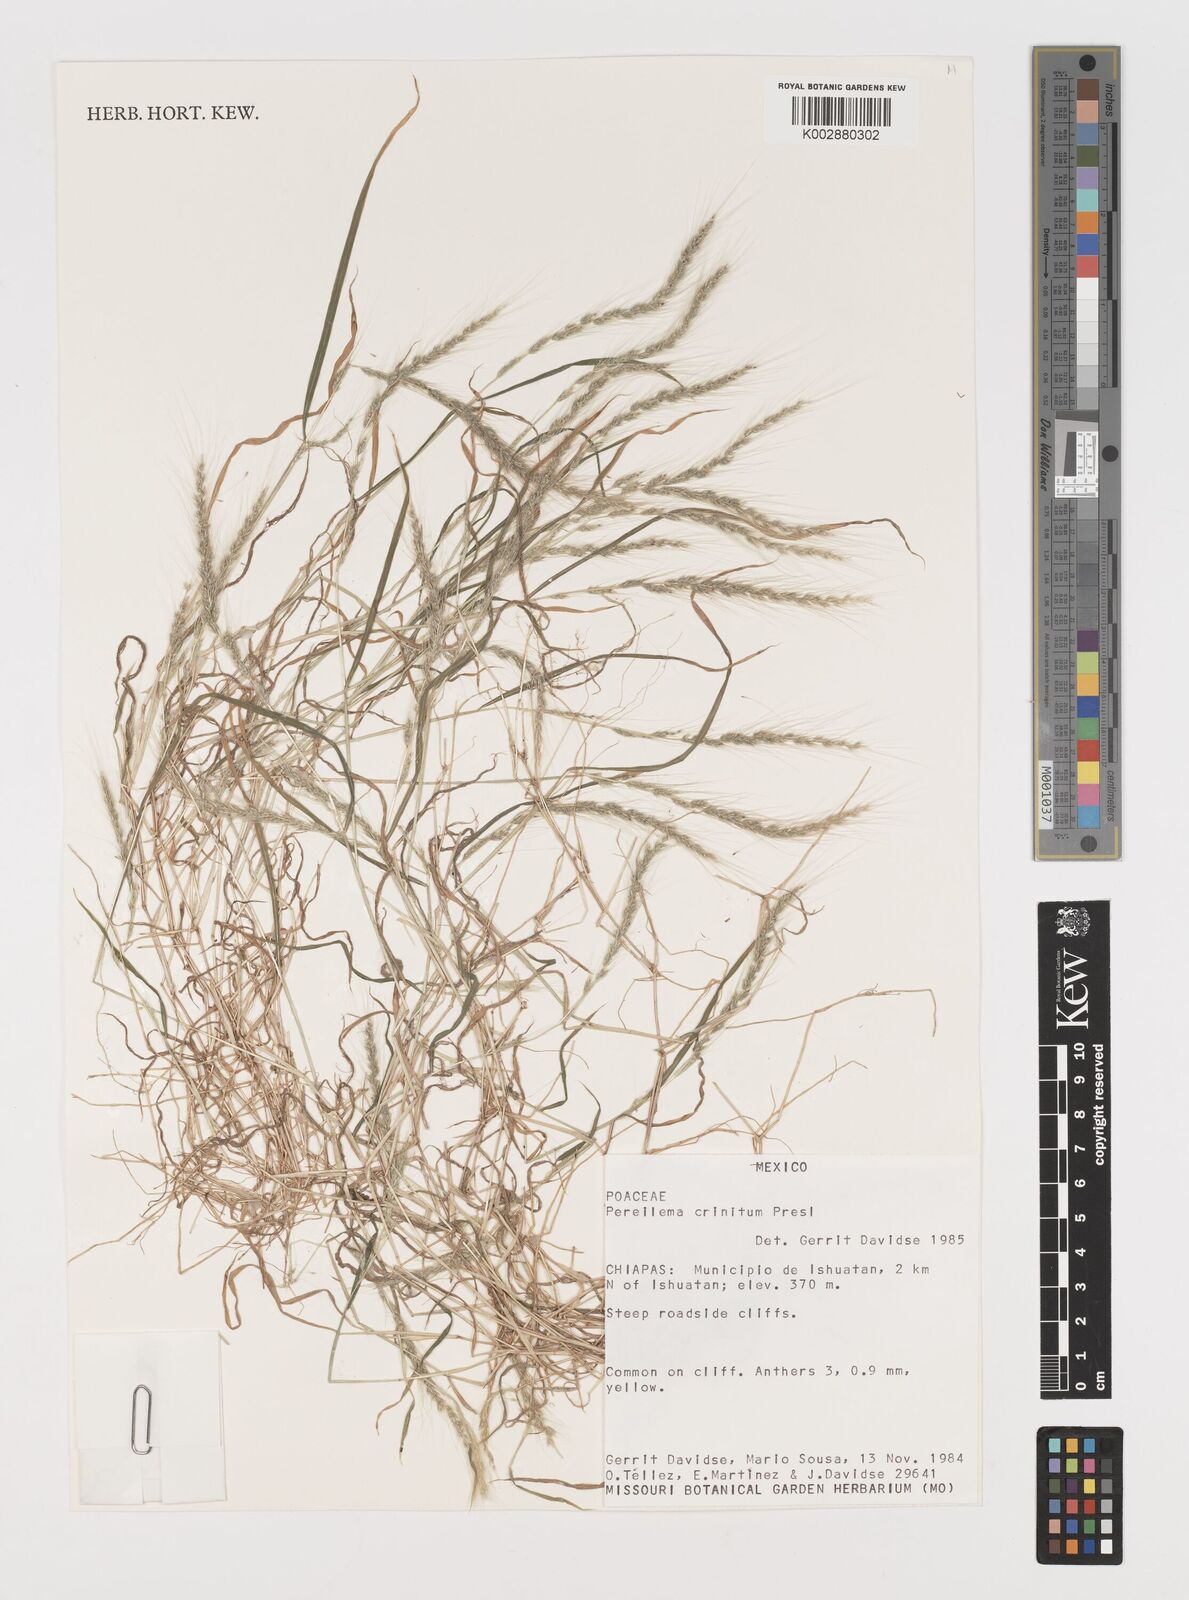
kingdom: Plantae
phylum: Tracheophyta
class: Liliopsida
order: Poales
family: Poaceae
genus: Muhlenbergia
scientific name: Muhlenbergia pereilema
